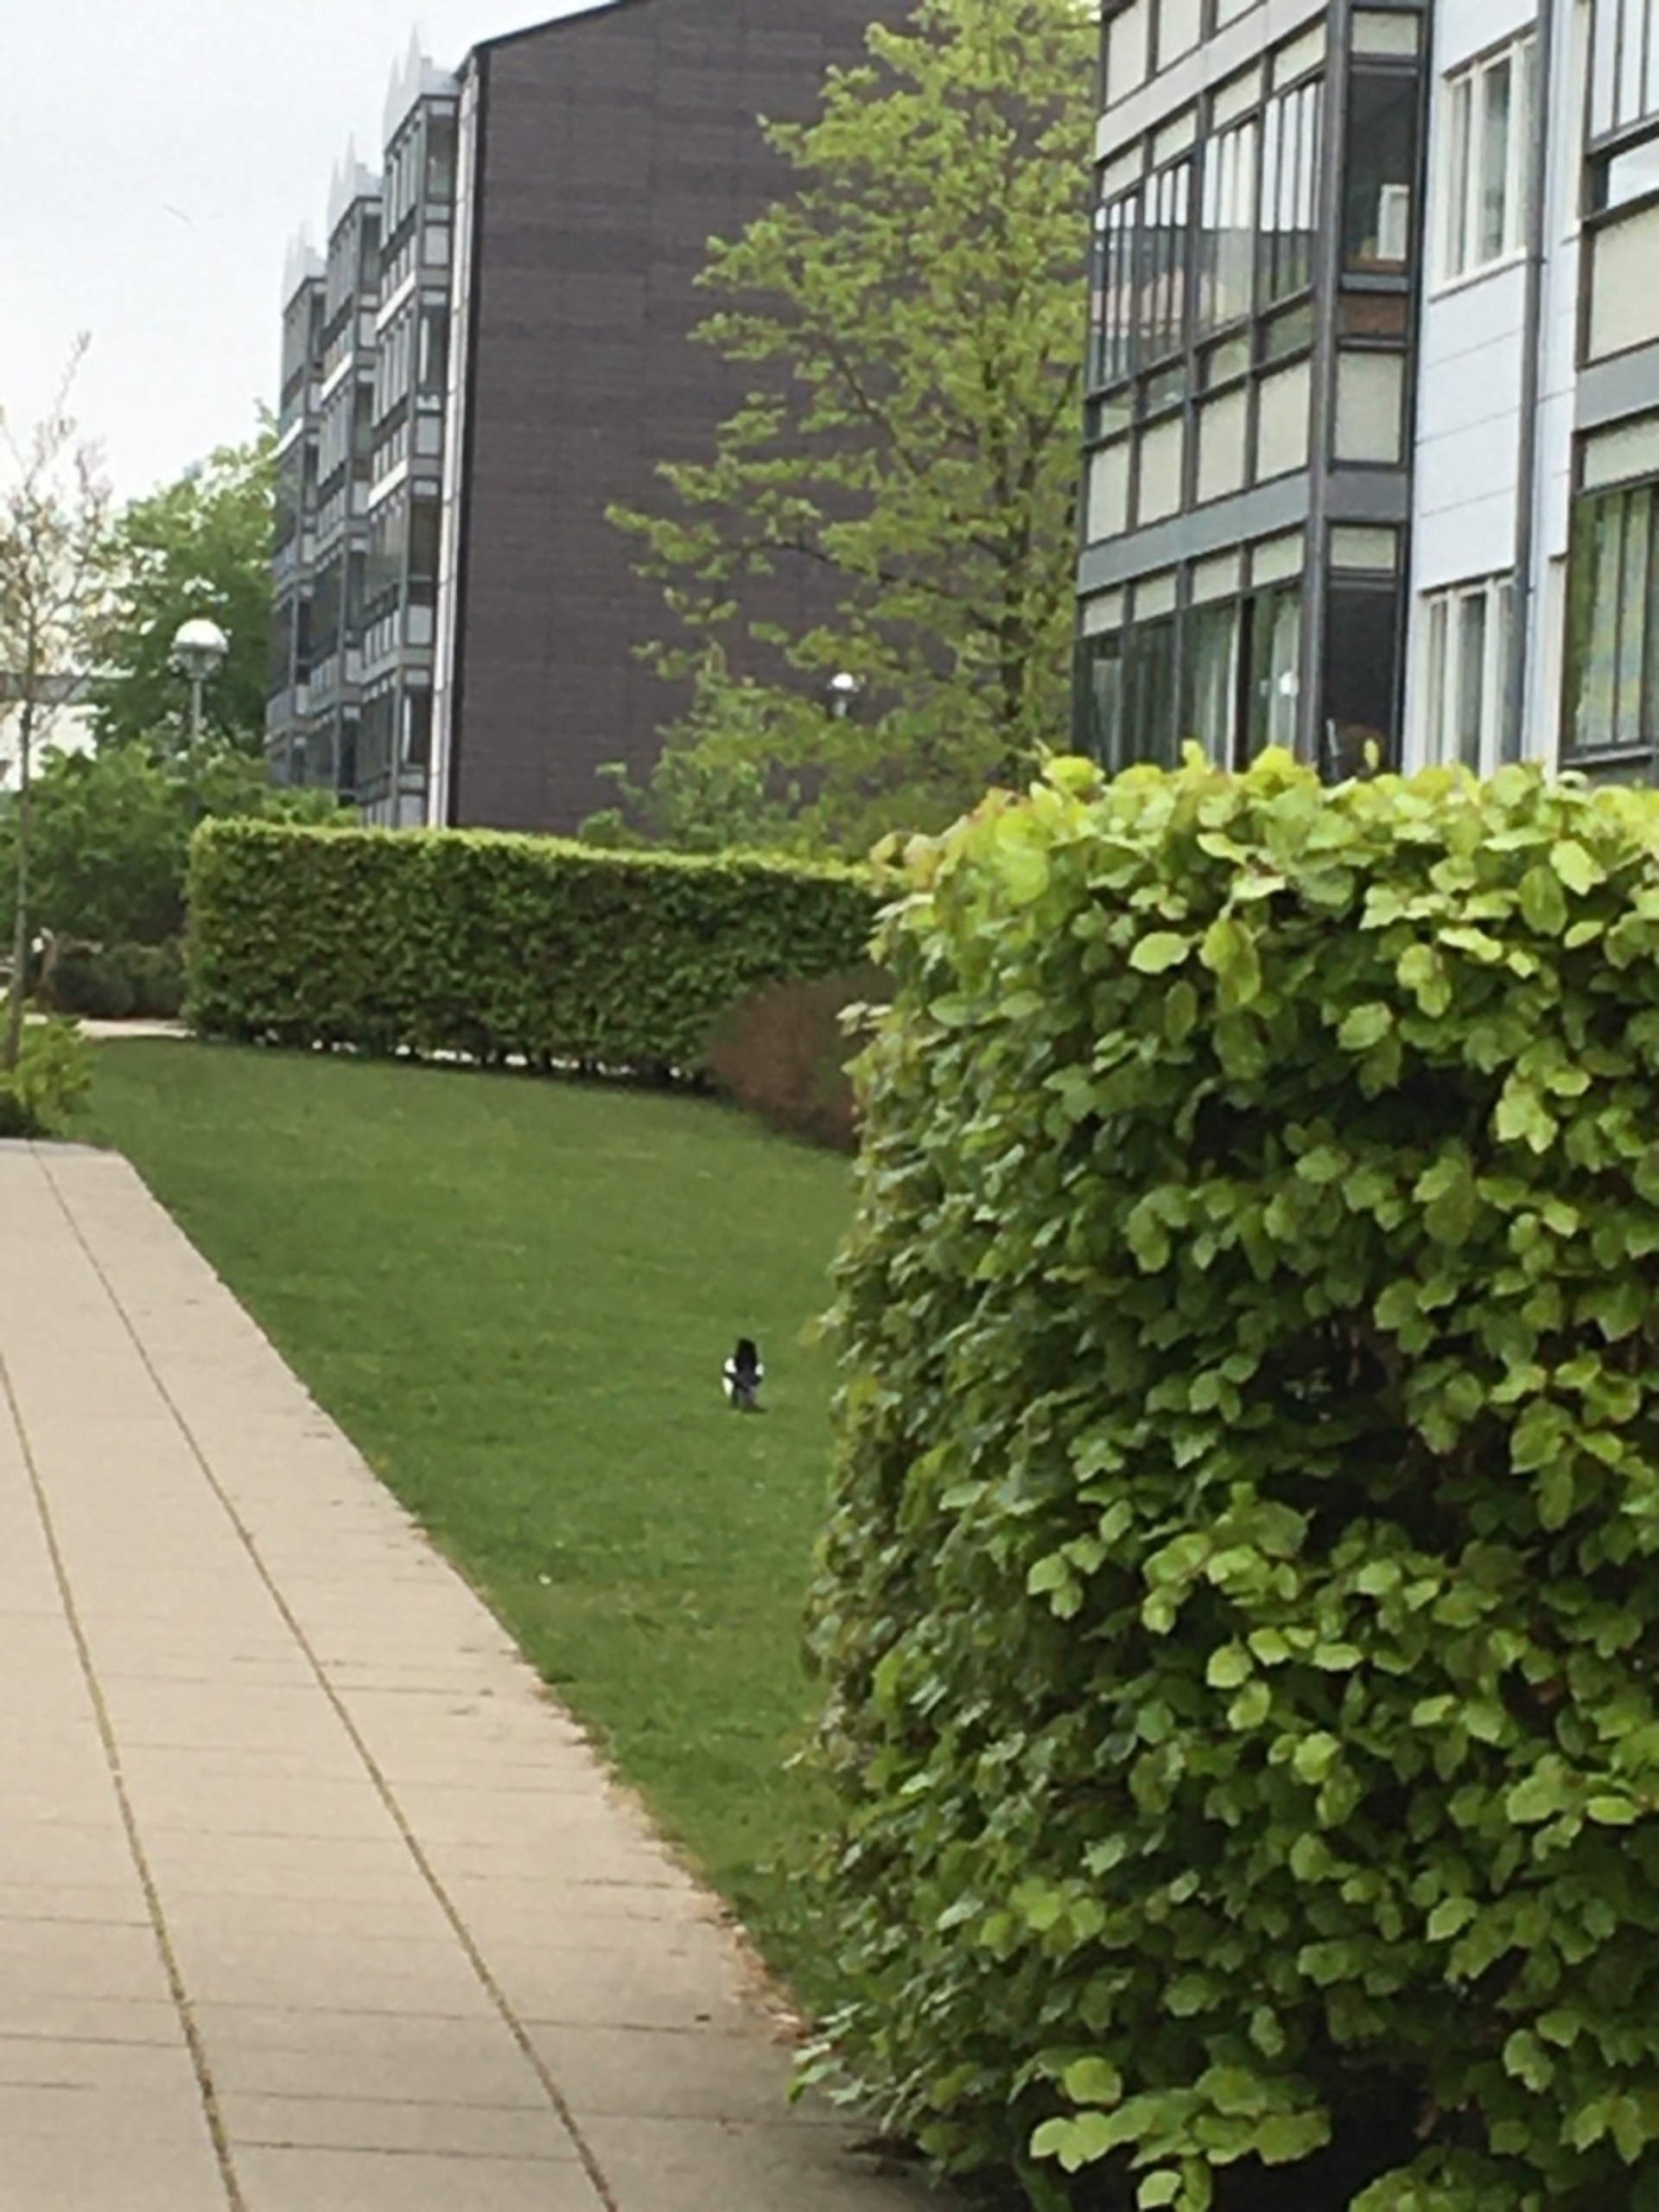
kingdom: Animalia
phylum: Chordata
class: Aves
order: Passeriformes
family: Corvidae
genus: Pica
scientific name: Pica pica
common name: Husskade
